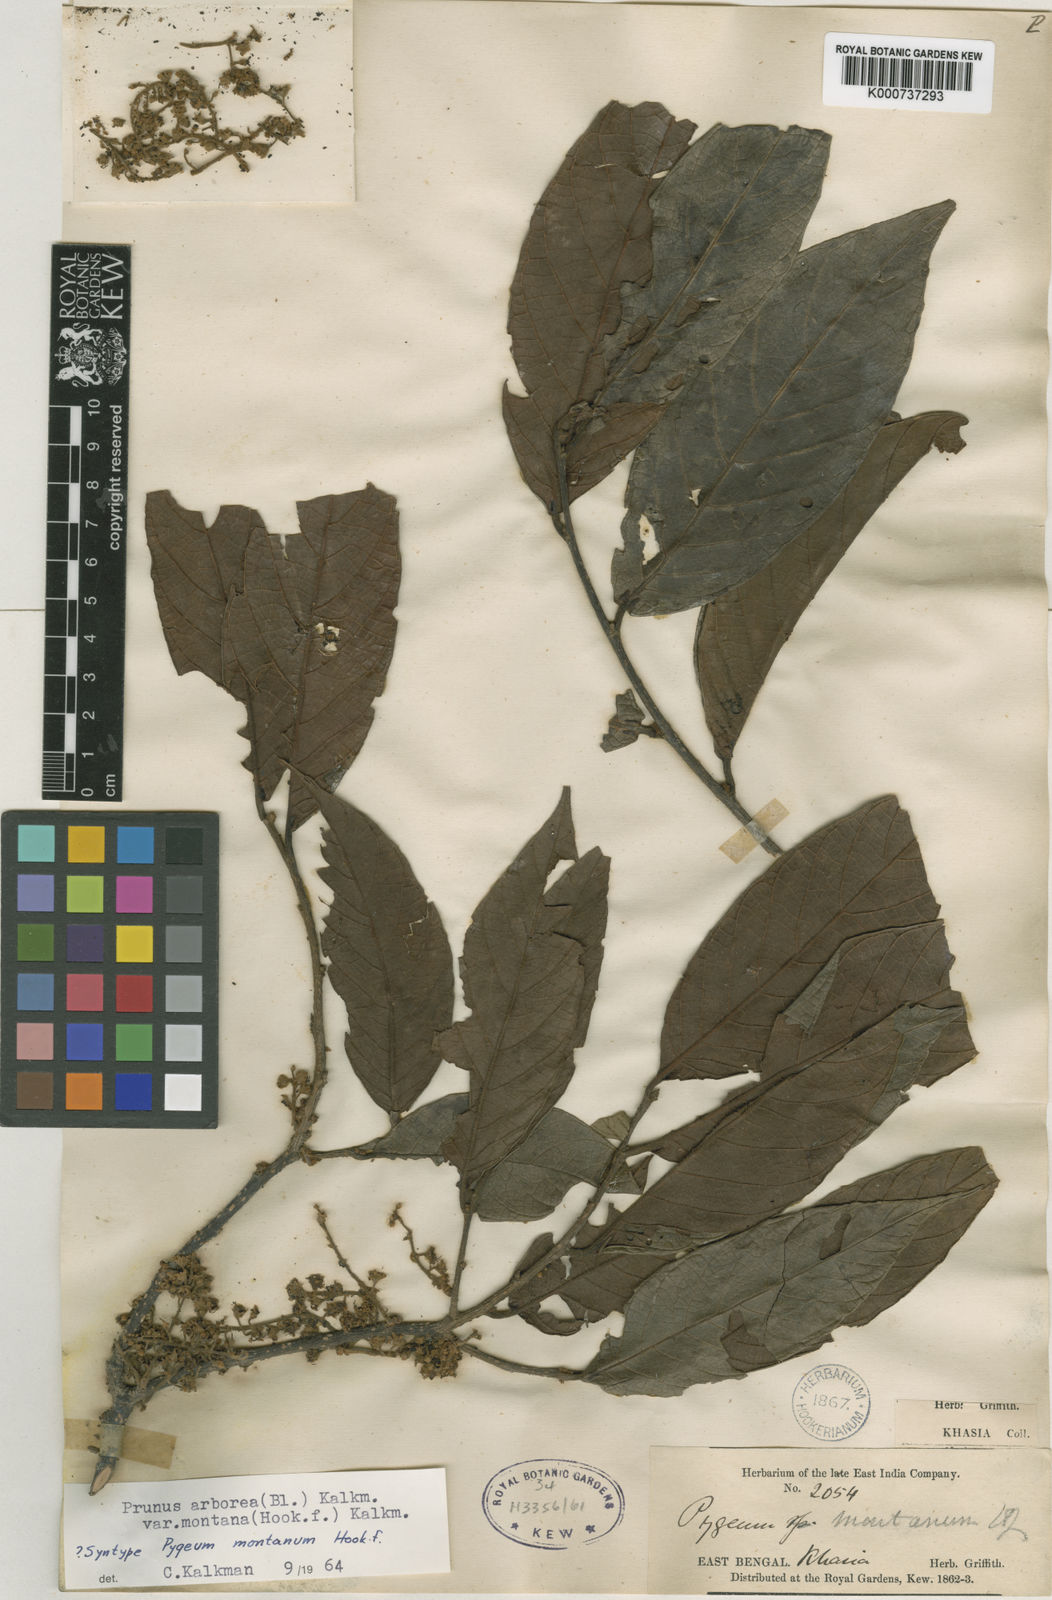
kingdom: Plantae
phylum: Tracheophyta
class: Magnoliopsida
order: Rosales
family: Rosaceae
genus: Prunus
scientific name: Prunus arborea
